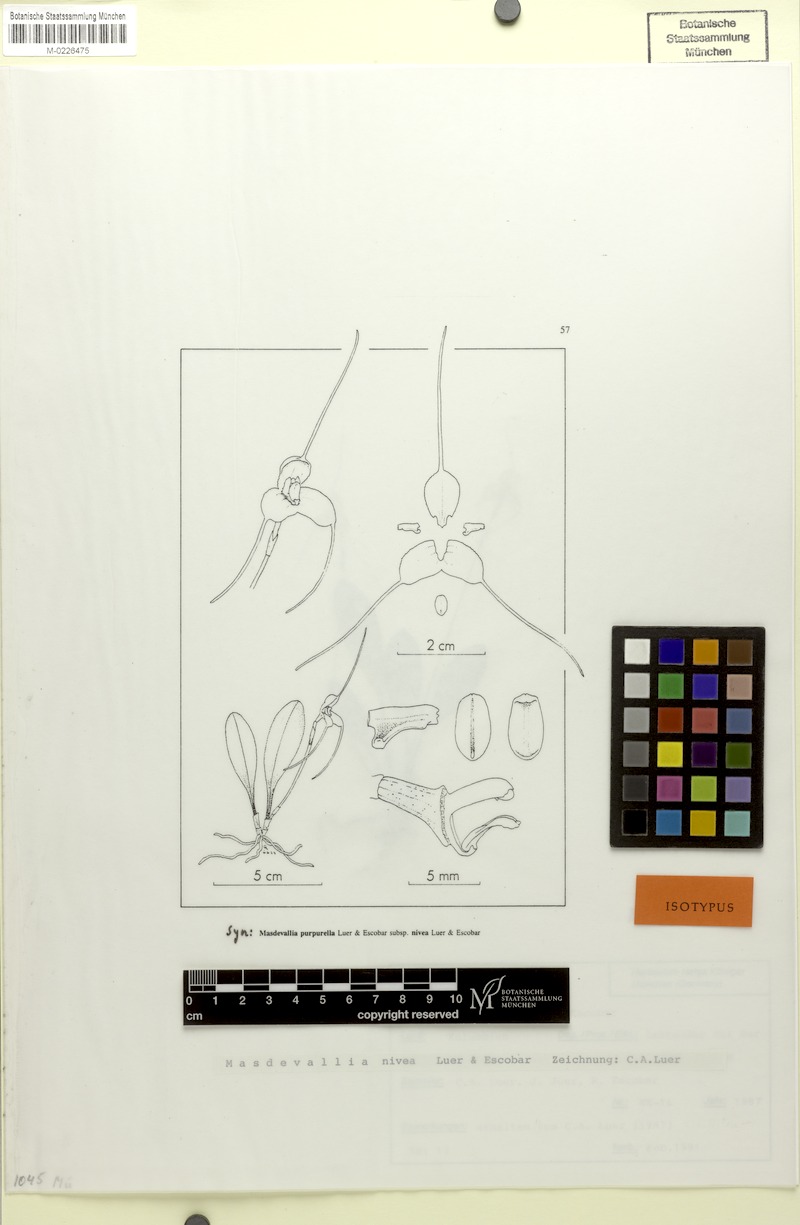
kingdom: Plantae
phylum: Tracheophyta
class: Liliopsida
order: Asparagales
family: Orchidaceae
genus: Masdevallia
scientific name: Masdevallia nivea
